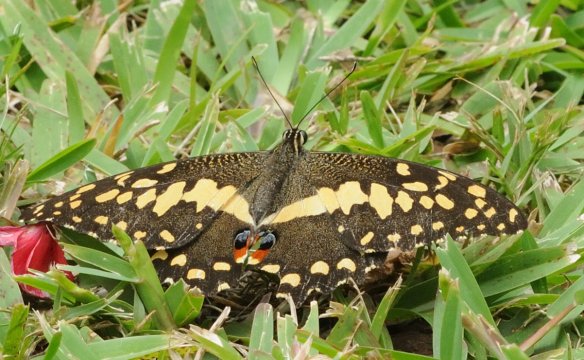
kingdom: Animalia
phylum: Arthropoda
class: Insecta
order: Lepidoptera
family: Papilionidae
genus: Papilio
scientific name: Papilio demodocus
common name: Citrus Swallowtail
